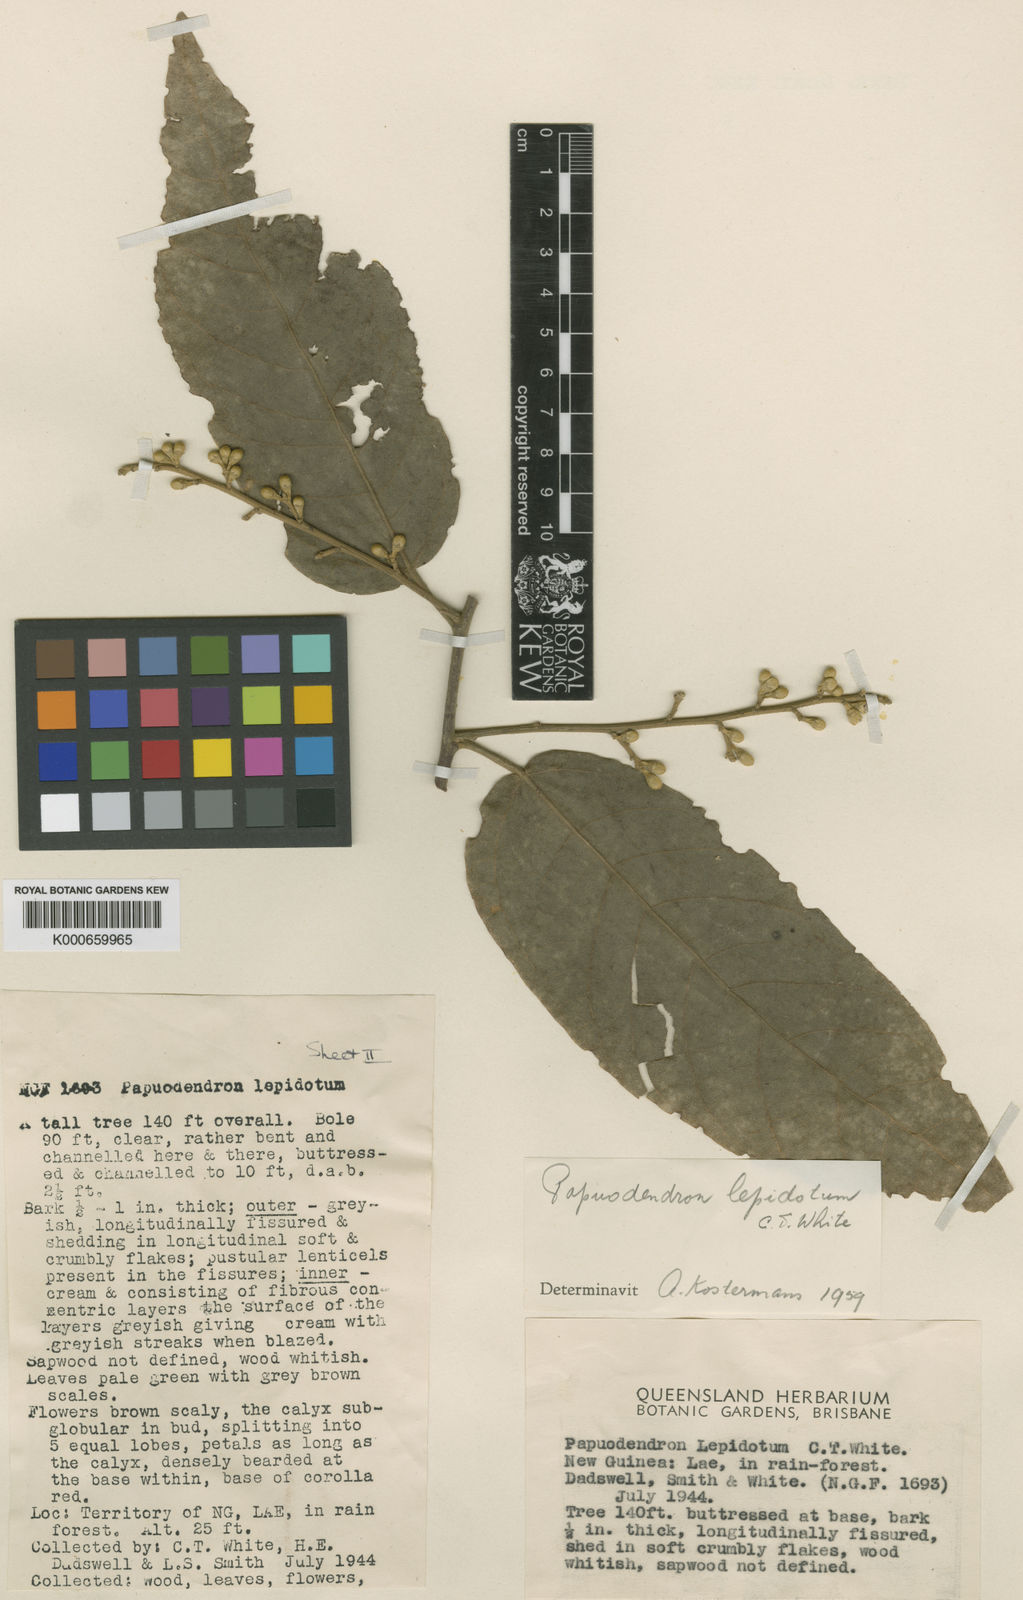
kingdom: Plantae
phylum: Tracheophyta
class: Magnoliopsida
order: Malvales
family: Malvaceae
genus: Papuodendron
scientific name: Papuodendron lepidotum
